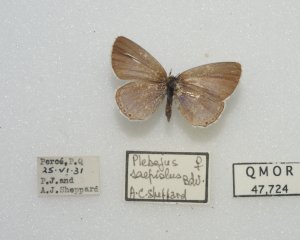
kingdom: Animalia
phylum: Arthropoda
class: Insecta
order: Lepidoptera
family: Lycaenidae
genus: Plebejus
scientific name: Plebejus saepiolus
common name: Greenish Blue
